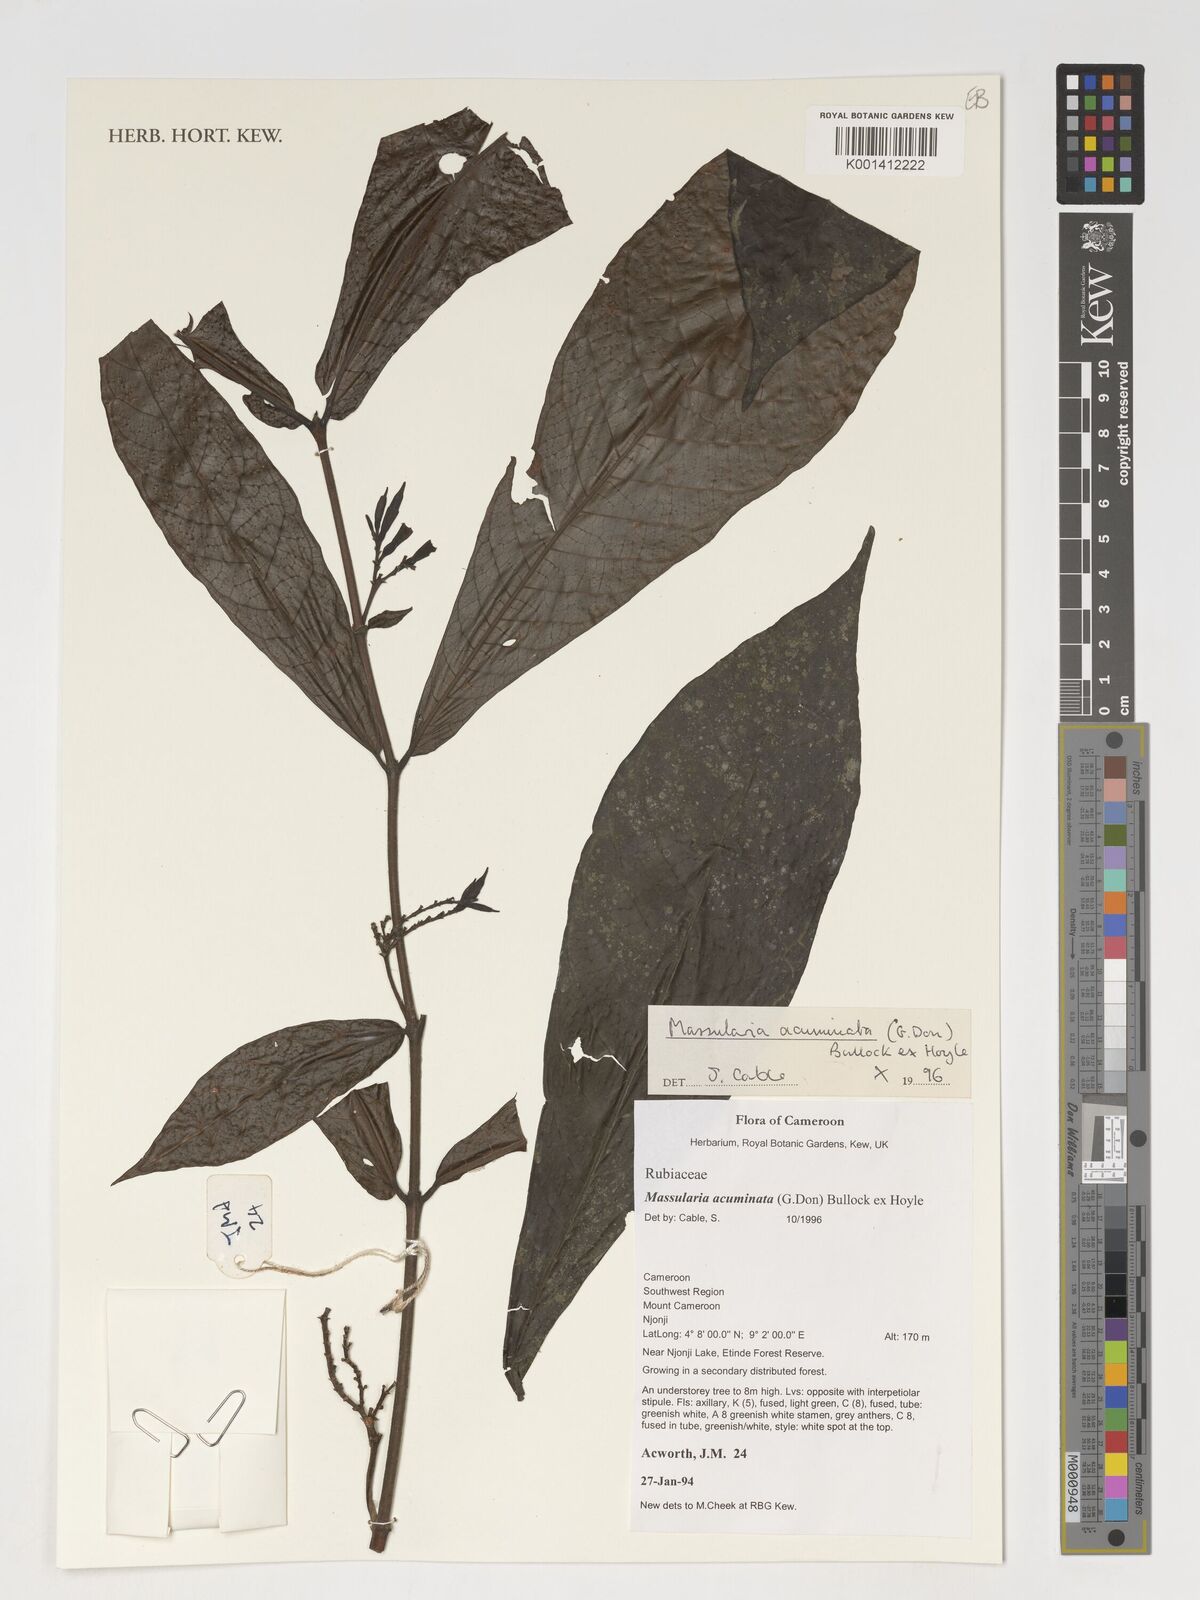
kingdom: Plantae
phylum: Tracheophyta
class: Magnoliopsida
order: Gentianales
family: Rubiaceae
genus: Massularia
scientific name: Massularia acuminata
